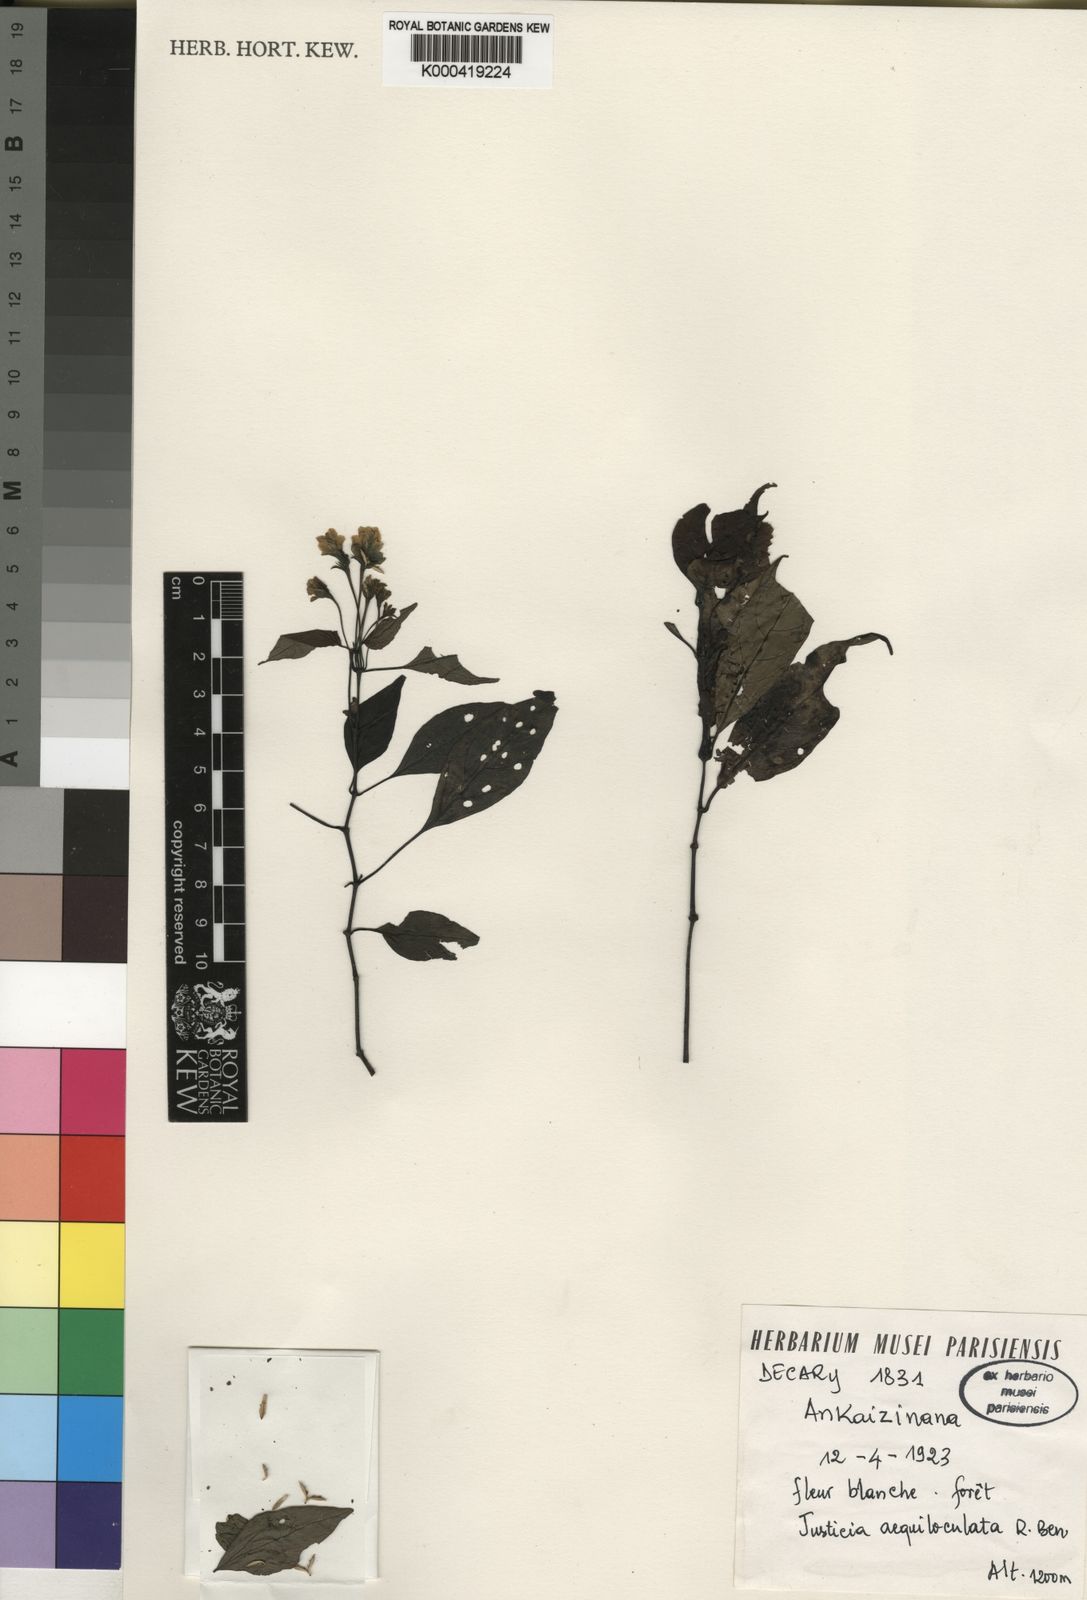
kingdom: Plantae
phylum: Tracheophyta
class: Magnoliopsida
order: Lamiales
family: Acanthaceae
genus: Justicia
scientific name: Justicia aequiloculata
